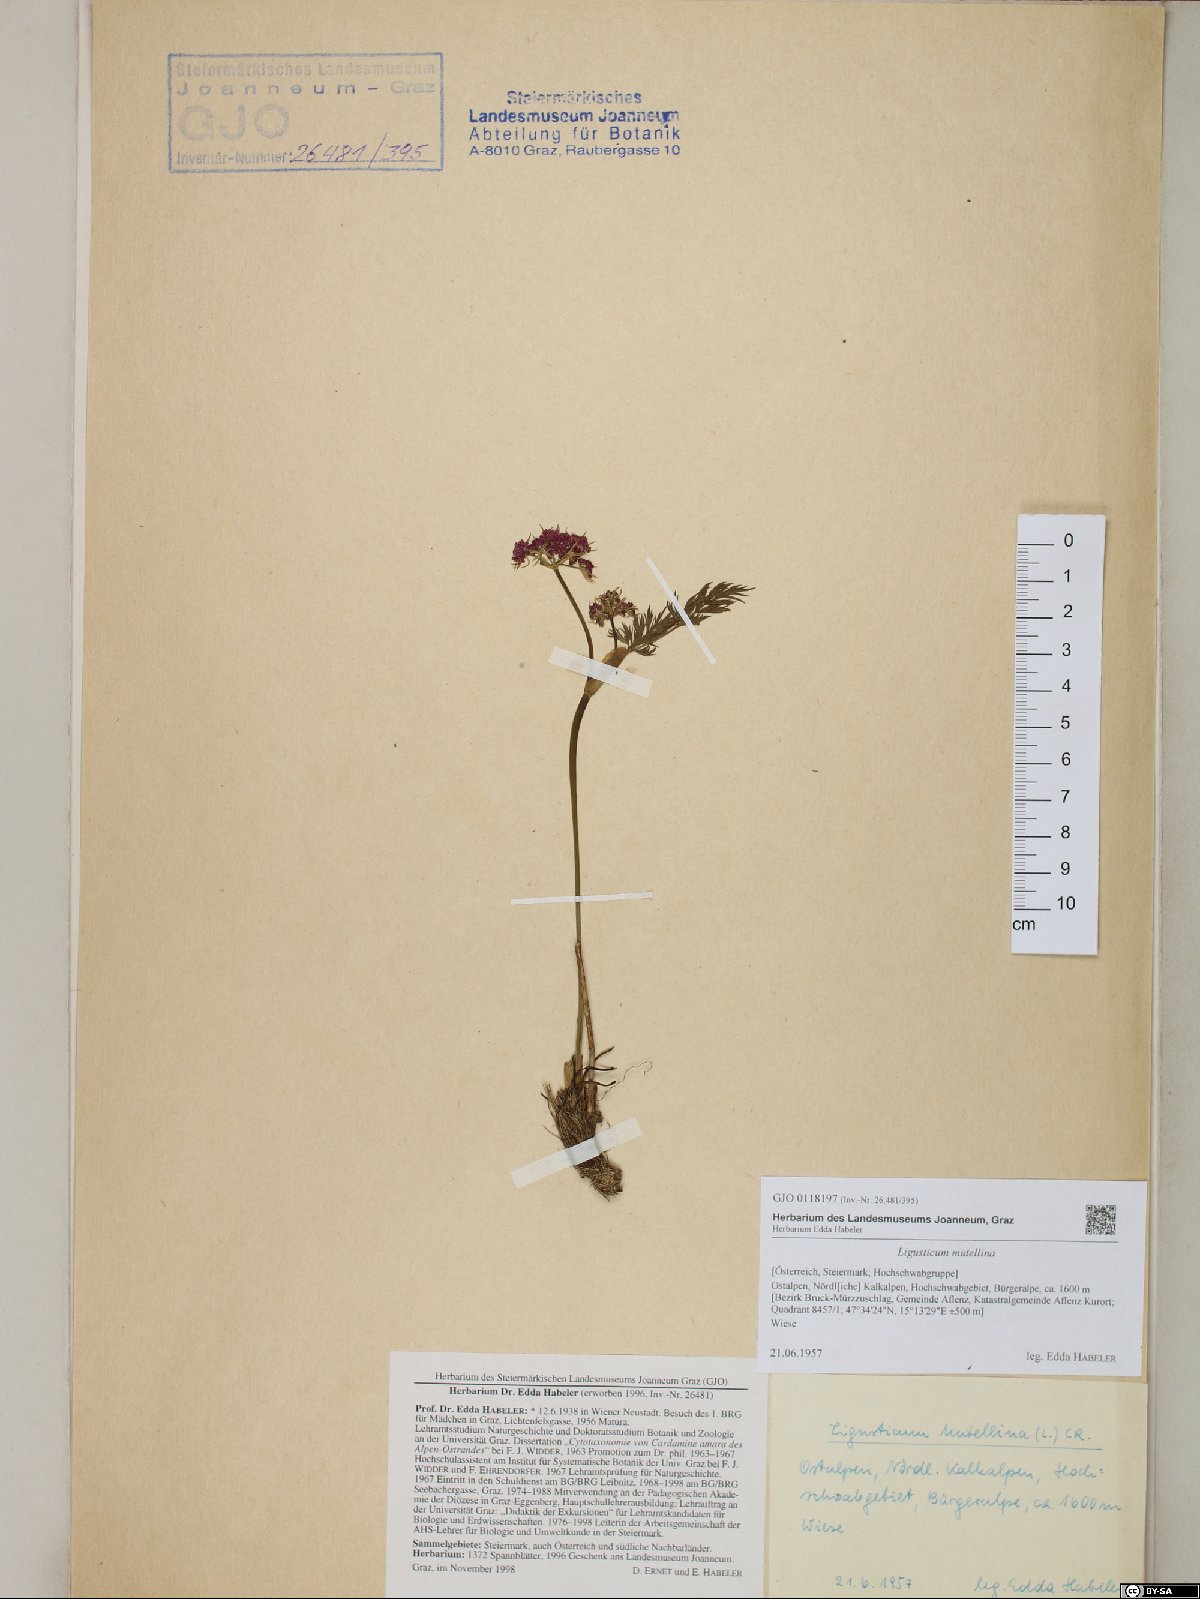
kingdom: Plantae
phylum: Tracheophyta
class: Magnoliopsida
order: Apiales
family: Apiaceae
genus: Mutellina
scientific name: Mutellina adonidifolia
